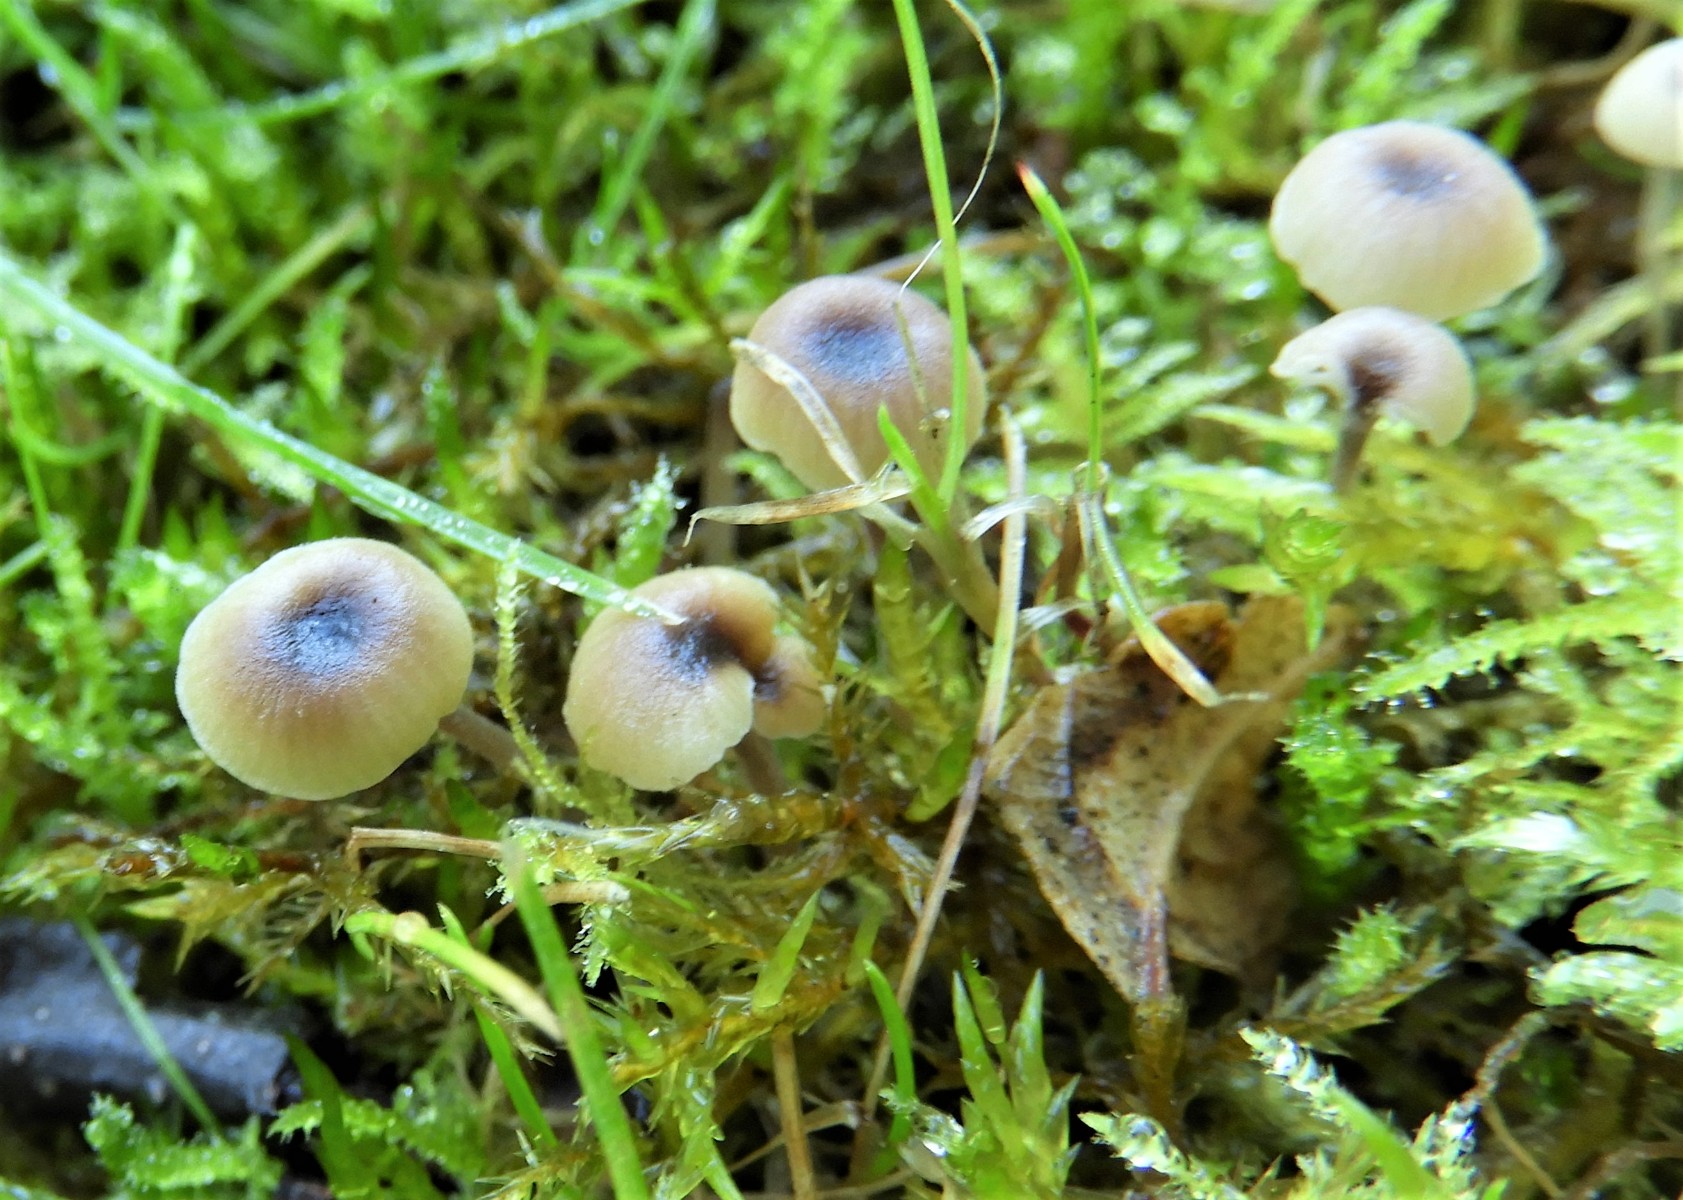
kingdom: Fungi
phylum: Basidiomycota
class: Agaricomycetes
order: Hymenochaetales
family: Rickenellaceae
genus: Rickenella
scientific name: Rickenella swartzii
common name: finstokket mosnavlehat
